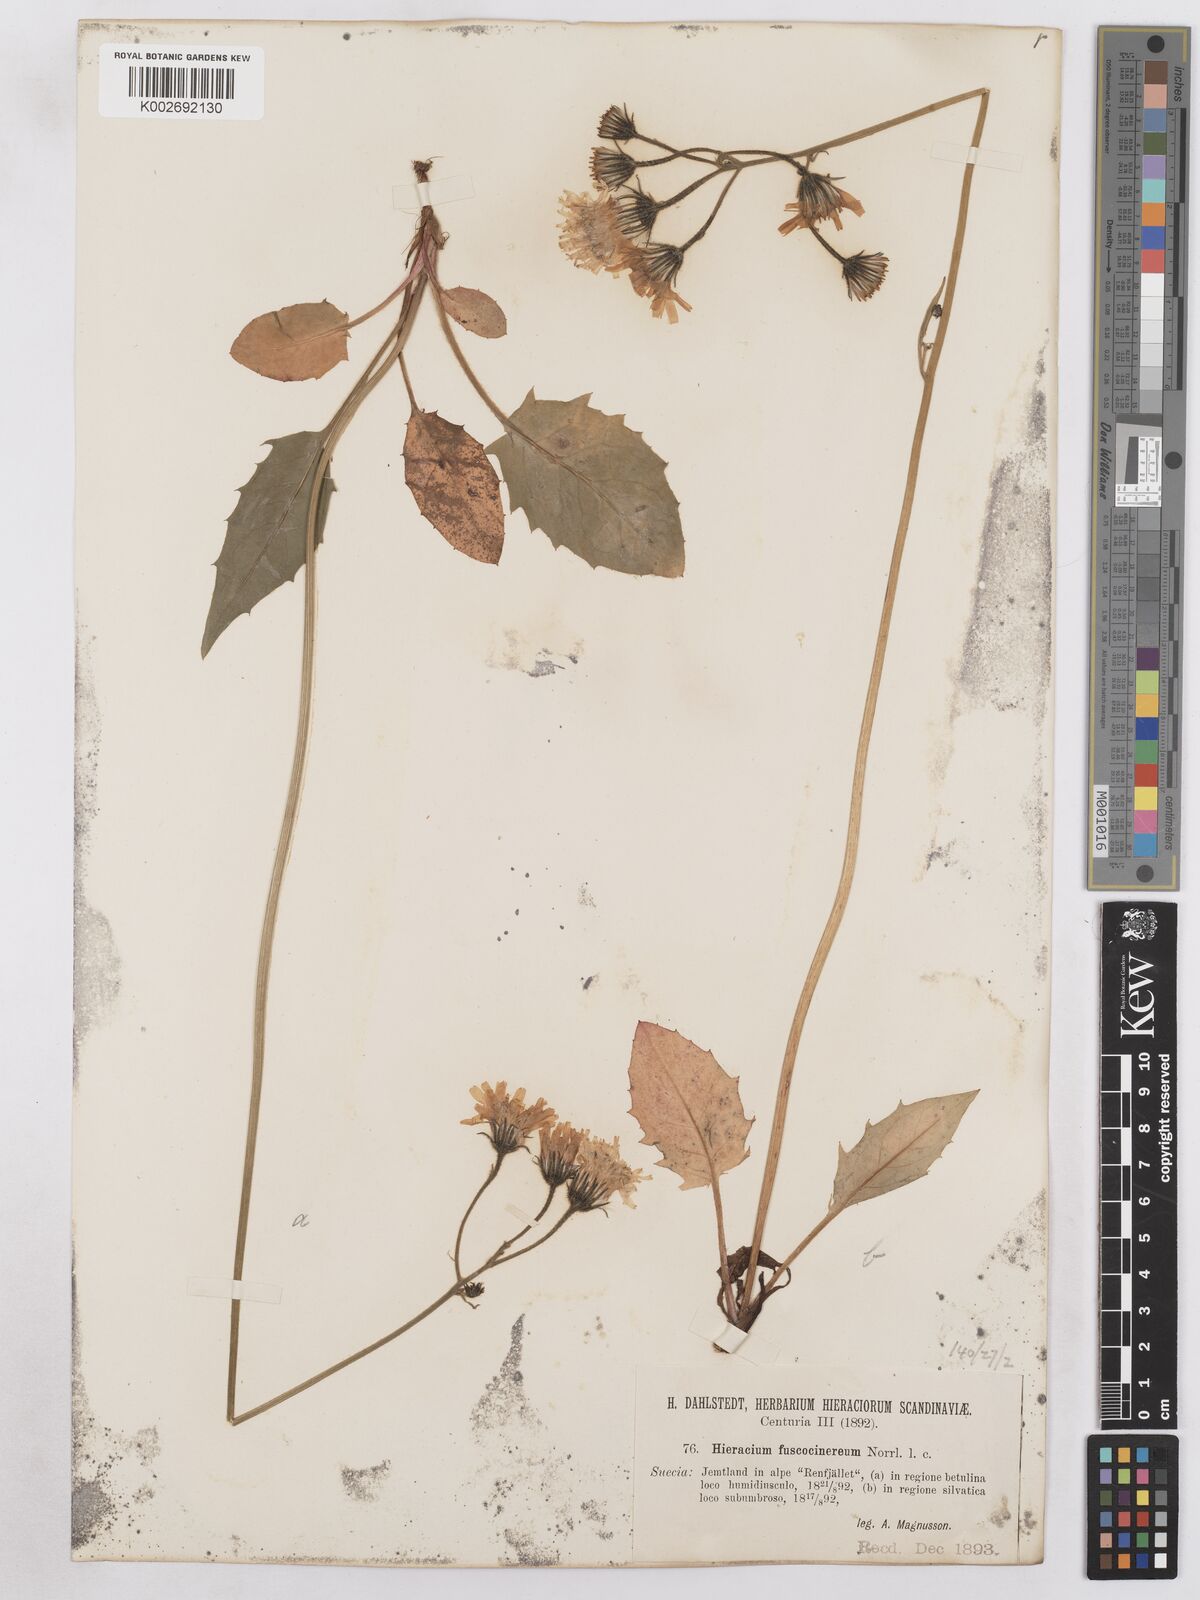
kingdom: Plantae
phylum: Tracheophyta
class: Magnoliopsida
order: Asterales
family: Asteraceae
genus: Hieracium
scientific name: Hieracium fuscocinereum
